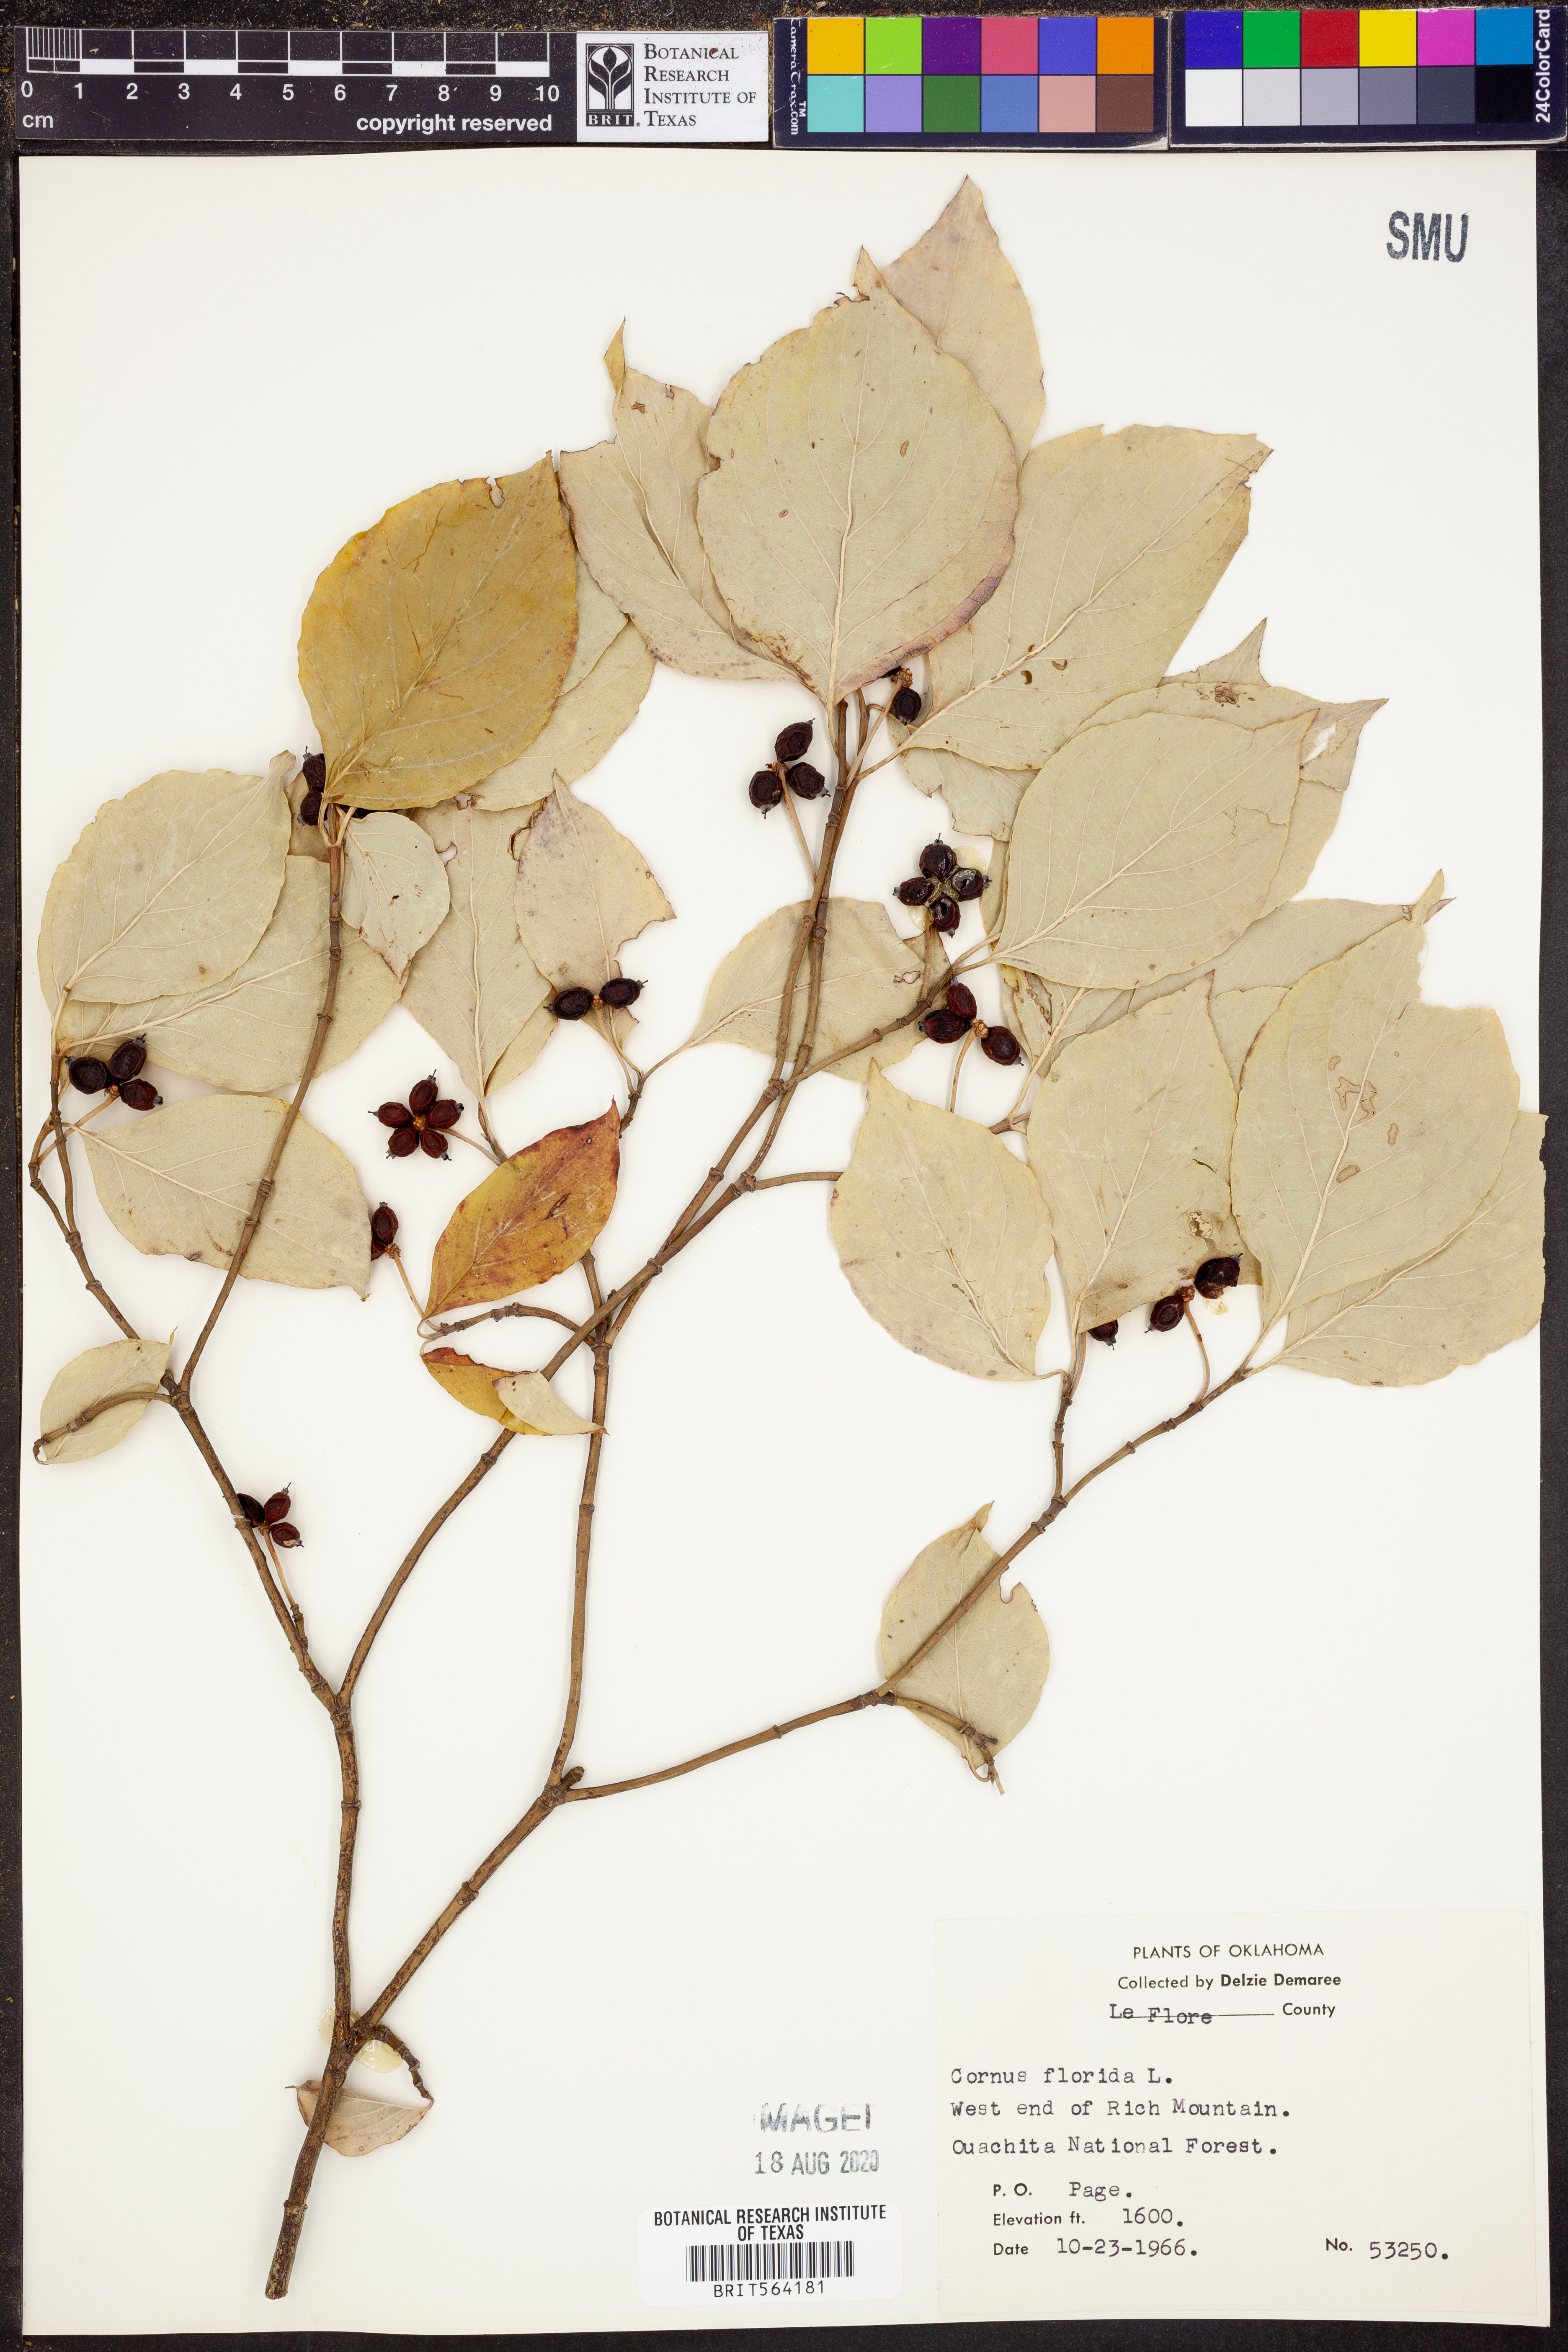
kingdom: Plantae
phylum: Tracheophyta
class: Magnoliopsida
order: Cornales
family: Cornaceae
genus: Cornus
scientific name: Cornus florida
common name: Flowering dogwood
